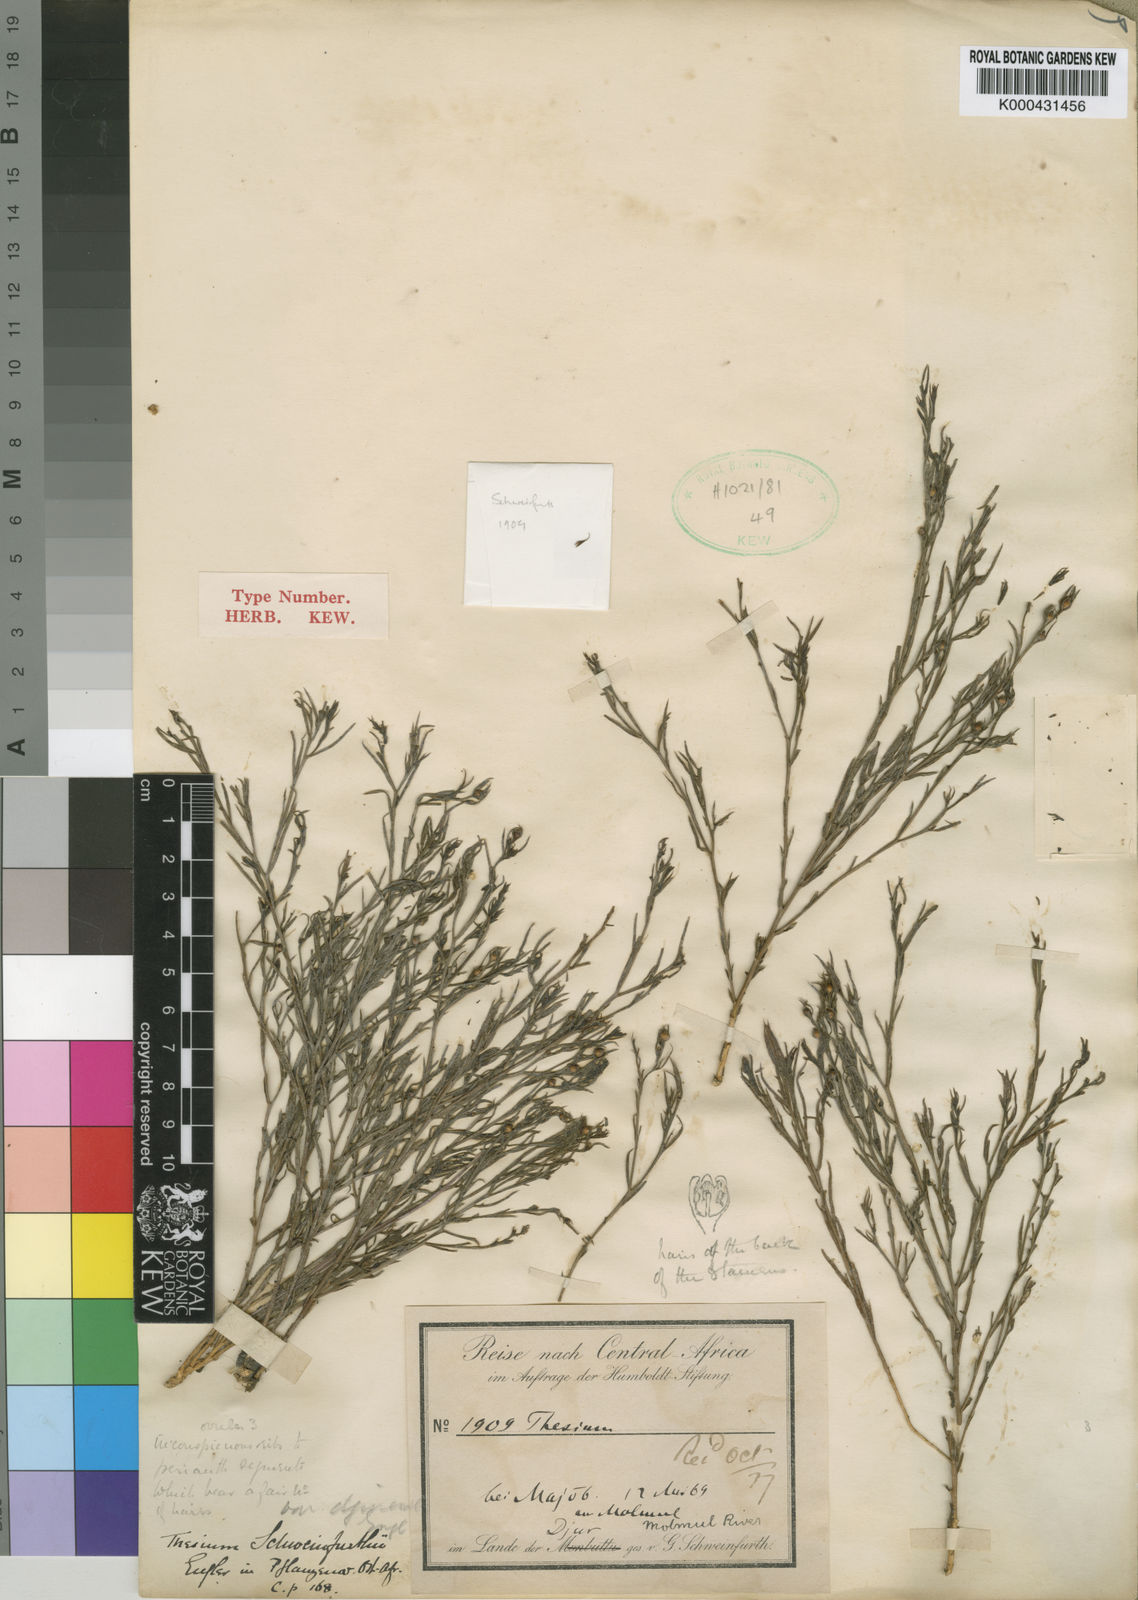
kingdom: Plantae
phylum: Tracheophyta
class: Magnoliopsida
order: Santalales
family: Thesiaceae
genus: Thesium
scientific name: Thesium schweinfurthii
